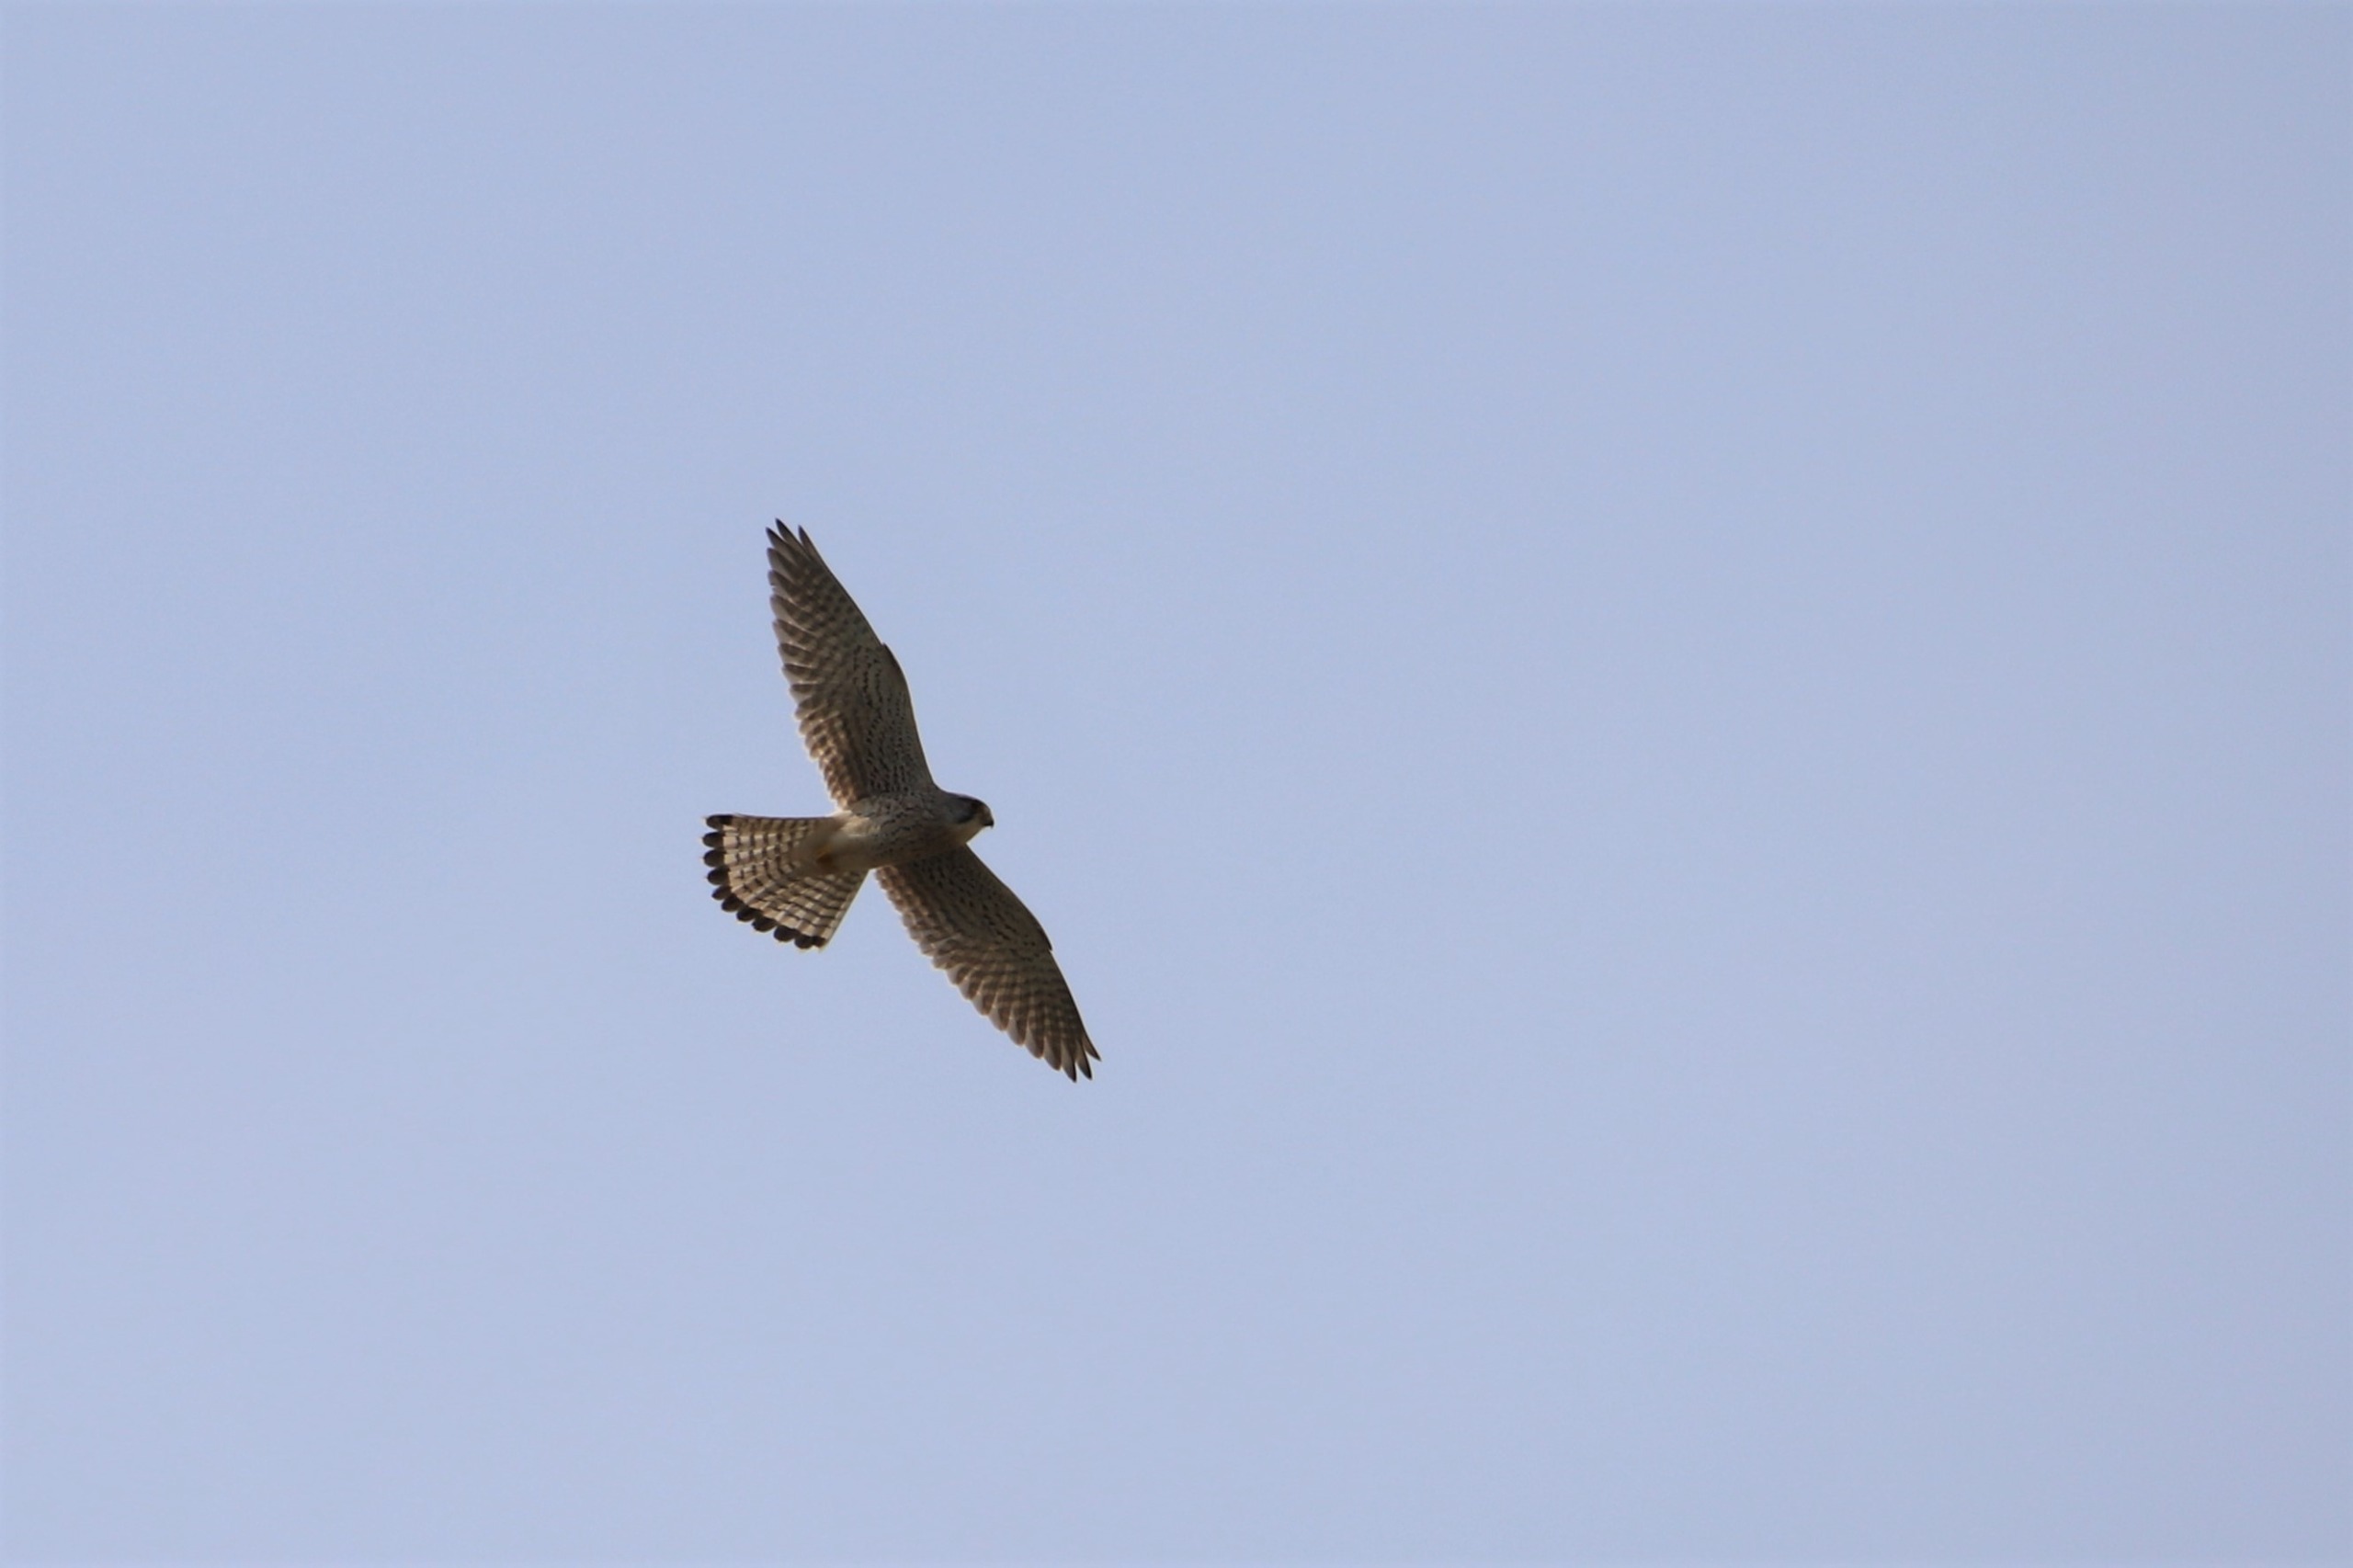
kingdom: Animalia
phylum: Chordata
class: Aves
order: Falconiformes
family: Falconidae
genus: Falco
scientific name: Falco tinnunculus
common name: Tårnfalk
